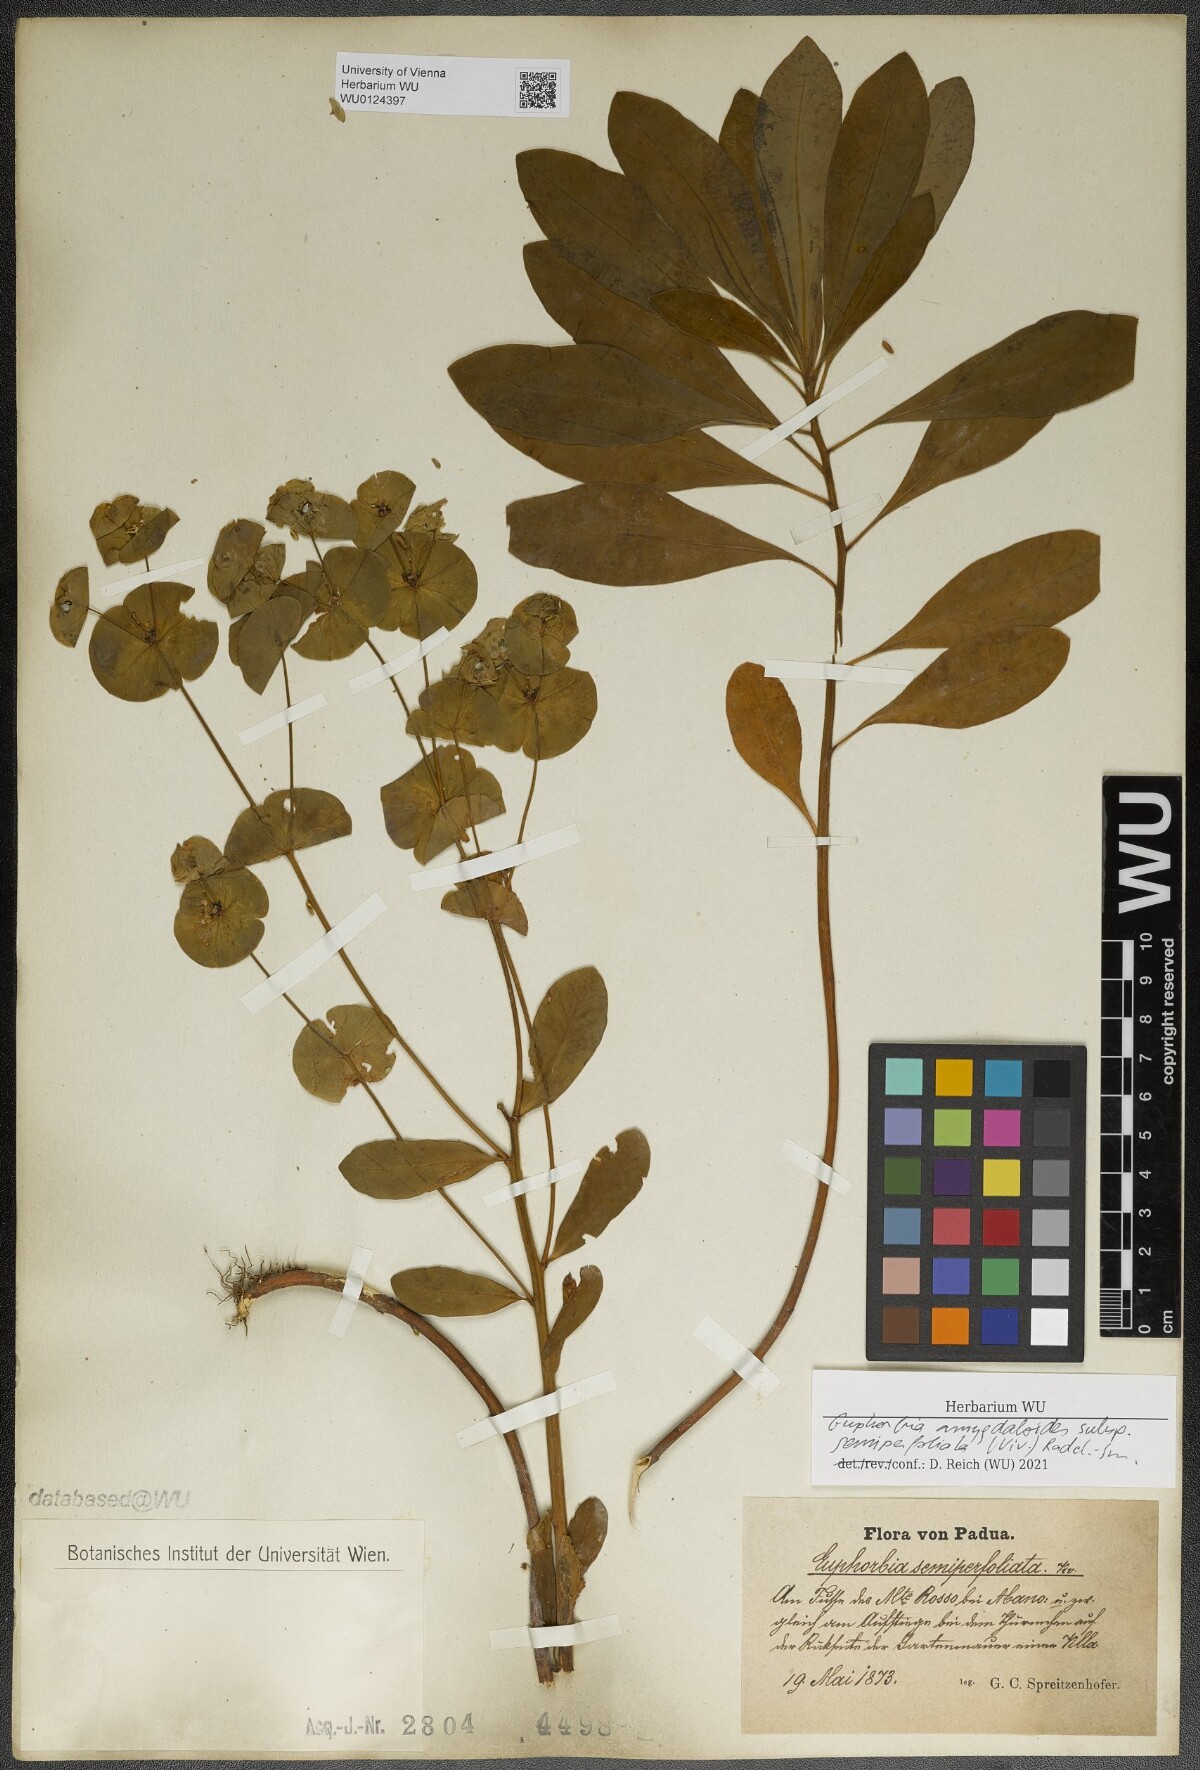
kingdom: Plantae
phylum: Tracheophyta
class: Magnoliopsida
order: Malpighiales
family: Euphorbiaceae
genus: Euphorbia
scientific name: Euphorbia semiperfoliata
